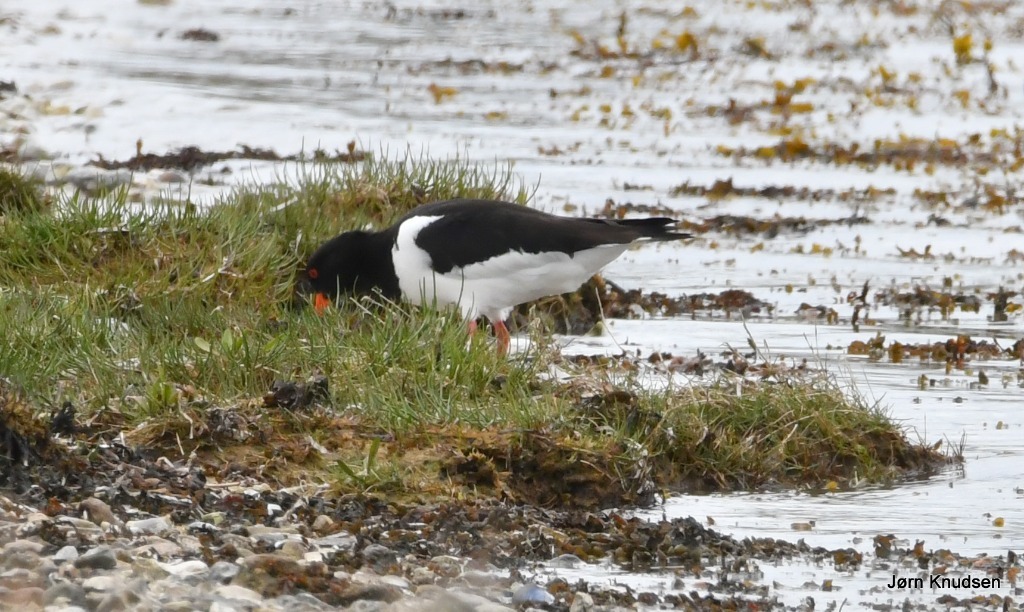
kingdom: Animalia
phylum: Chordata
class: Aves
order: Charadriiformes
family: Haematopodidae
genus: Haematopus
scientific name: Haematopus ostralegus
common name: Strandskade
